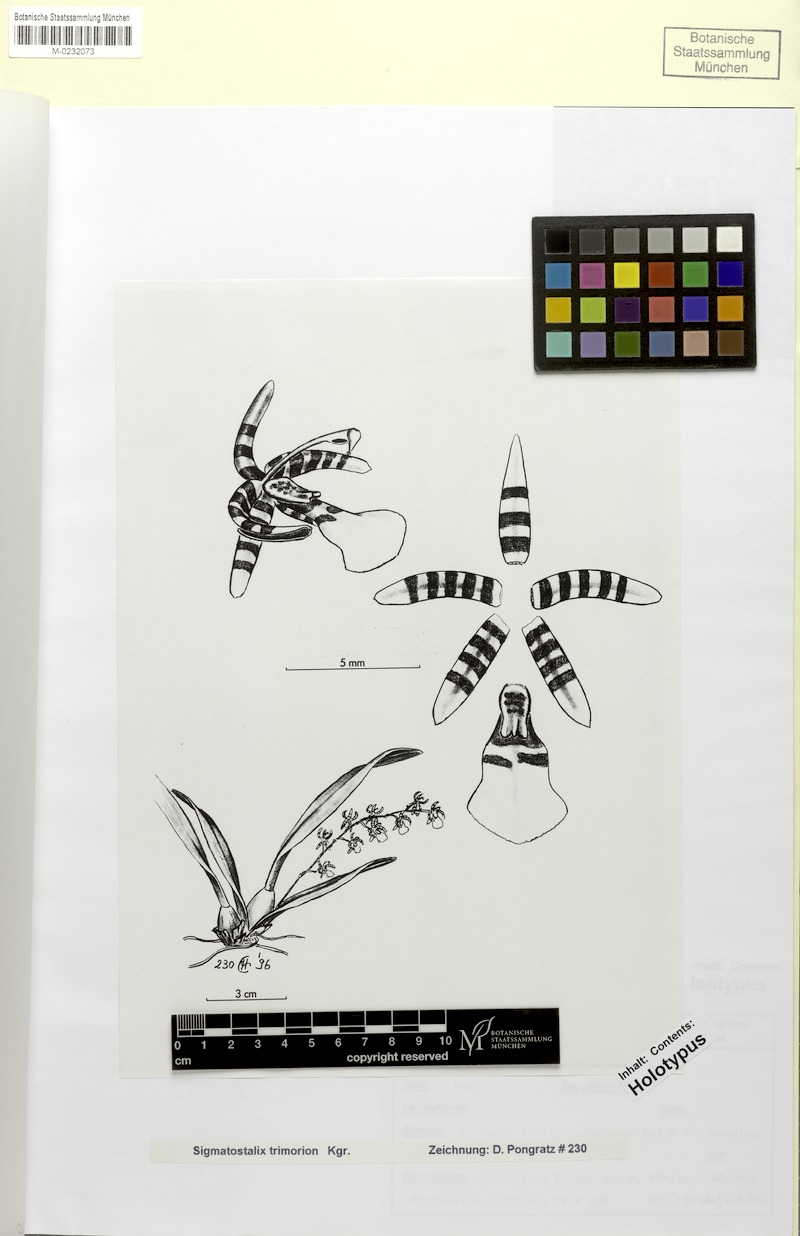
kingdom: Plantae
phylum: Tracheophyta
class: Liliopsida
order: Asparagales
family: Orchidaceae
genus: Oncidium
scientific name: Oncidium trimorion
